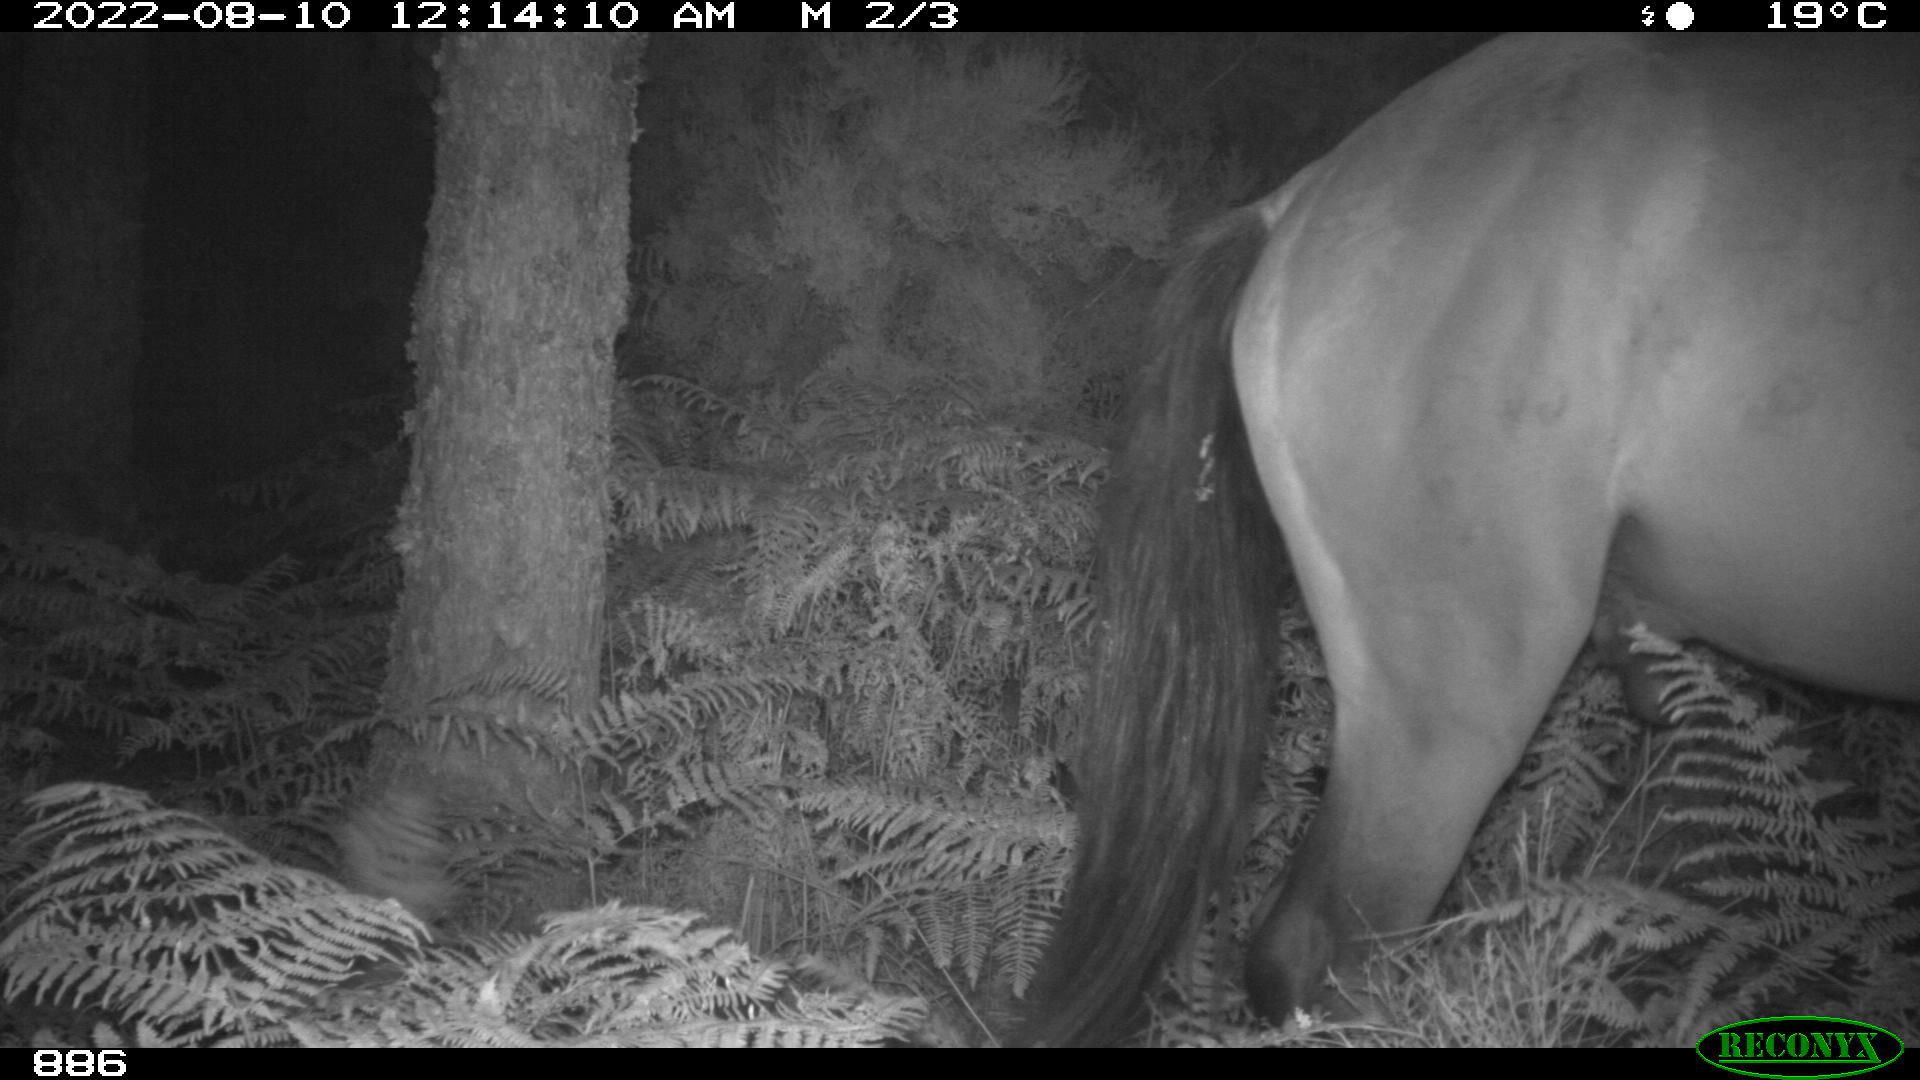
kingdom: Animalia
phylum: Chordata
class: Mammalia
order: Perissodactyla
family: Equidae
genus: Equus
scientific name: Equus caballus
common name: Horse
